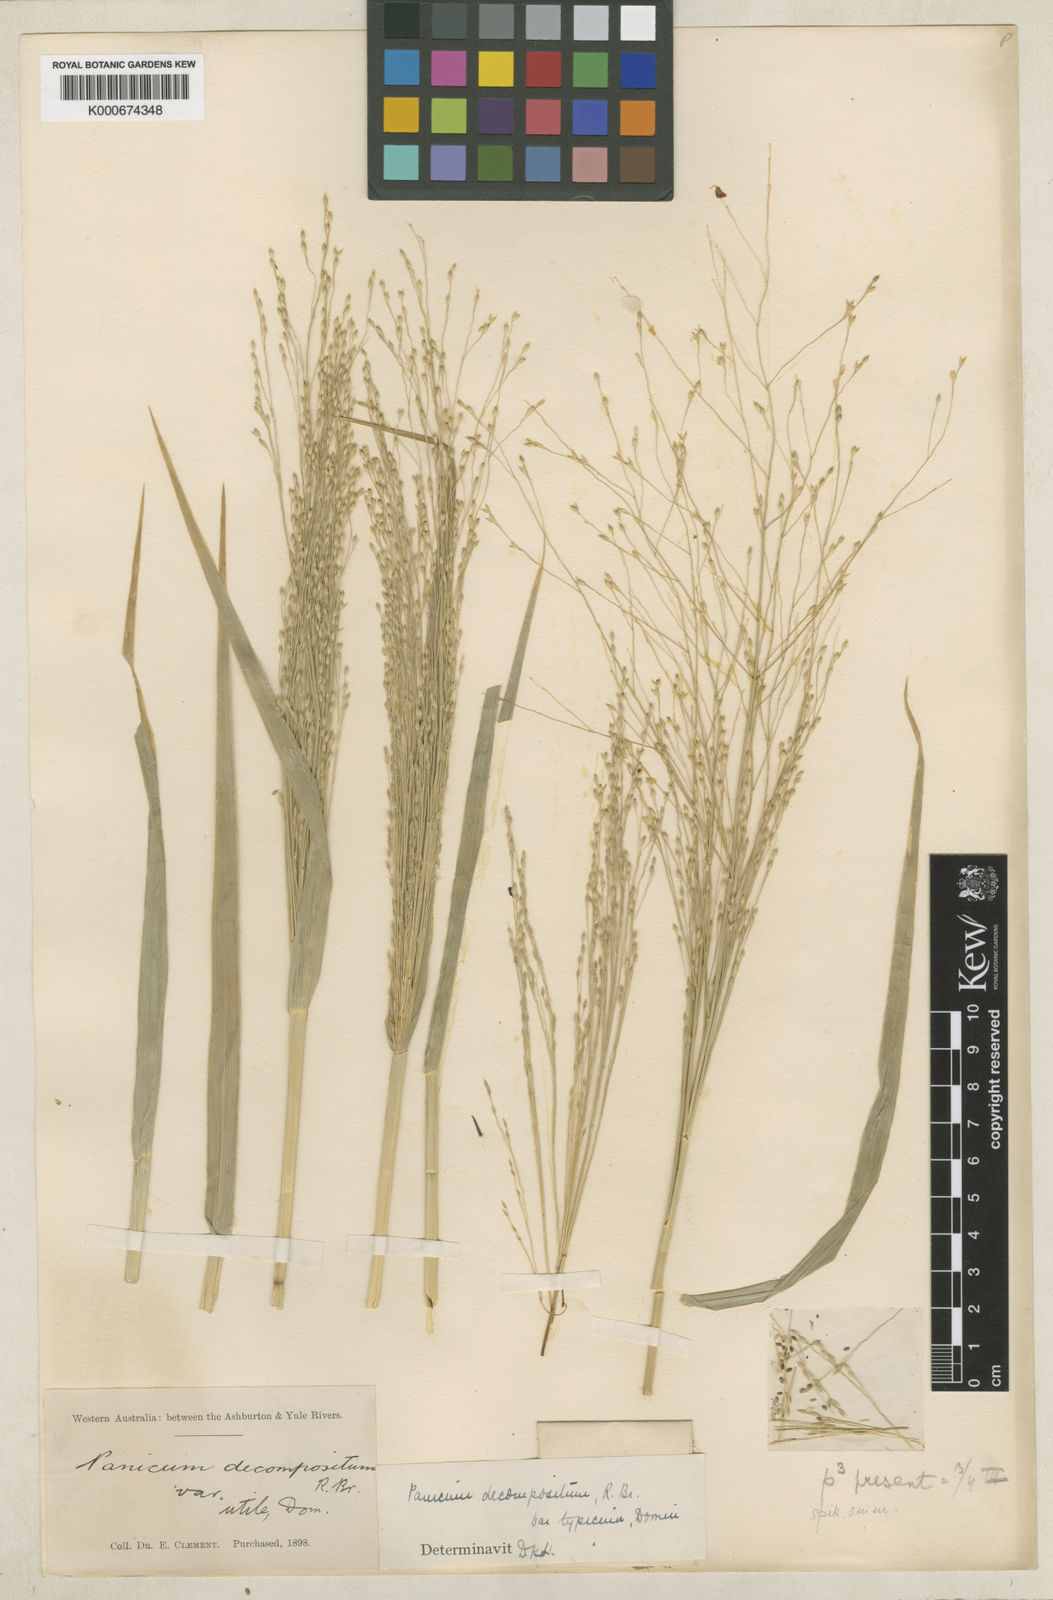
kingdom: Plantae
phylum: Tracheophyta
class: Liliopsida
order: Poales
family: Poaceae
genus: Panicum
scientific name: Panicum decompositum
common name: Australian millet
